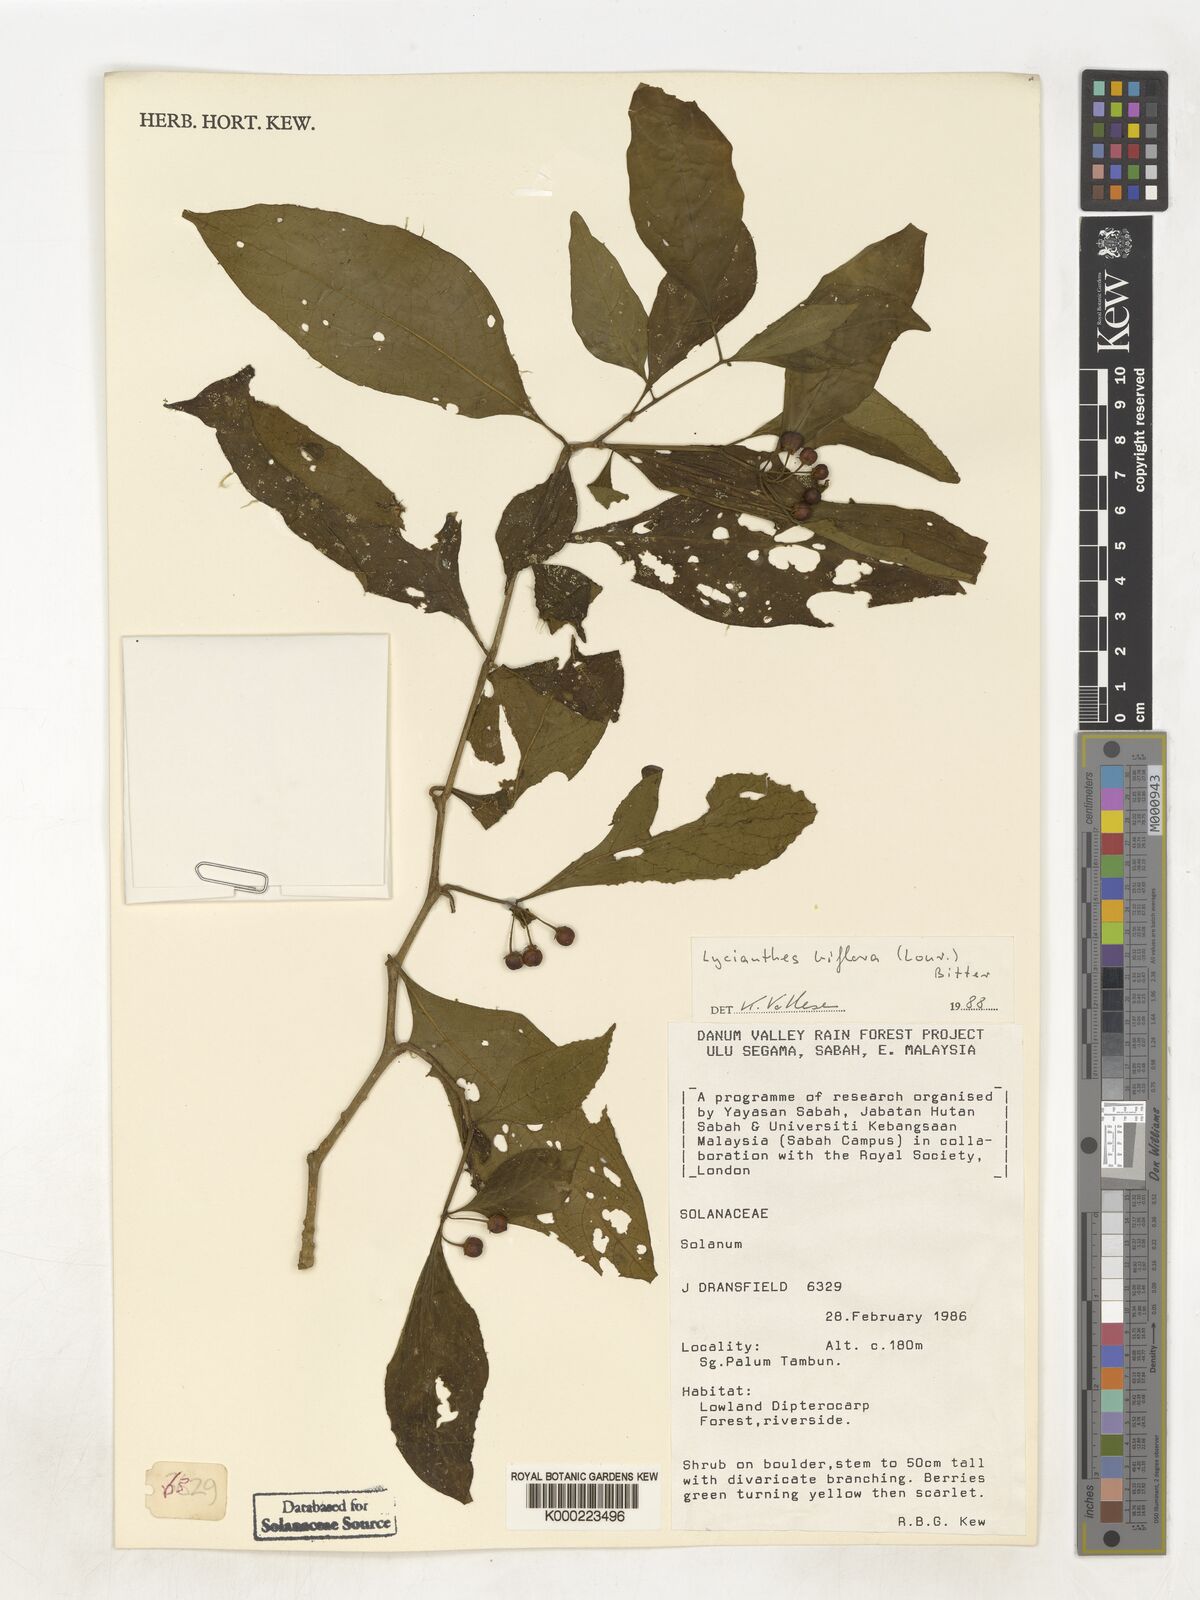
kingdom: Plantae
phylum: Tracheophyta
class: Magnoliopsida
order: Solanales
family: Solanaceae
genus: Lycianthes
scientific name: Lycianthes biflora
